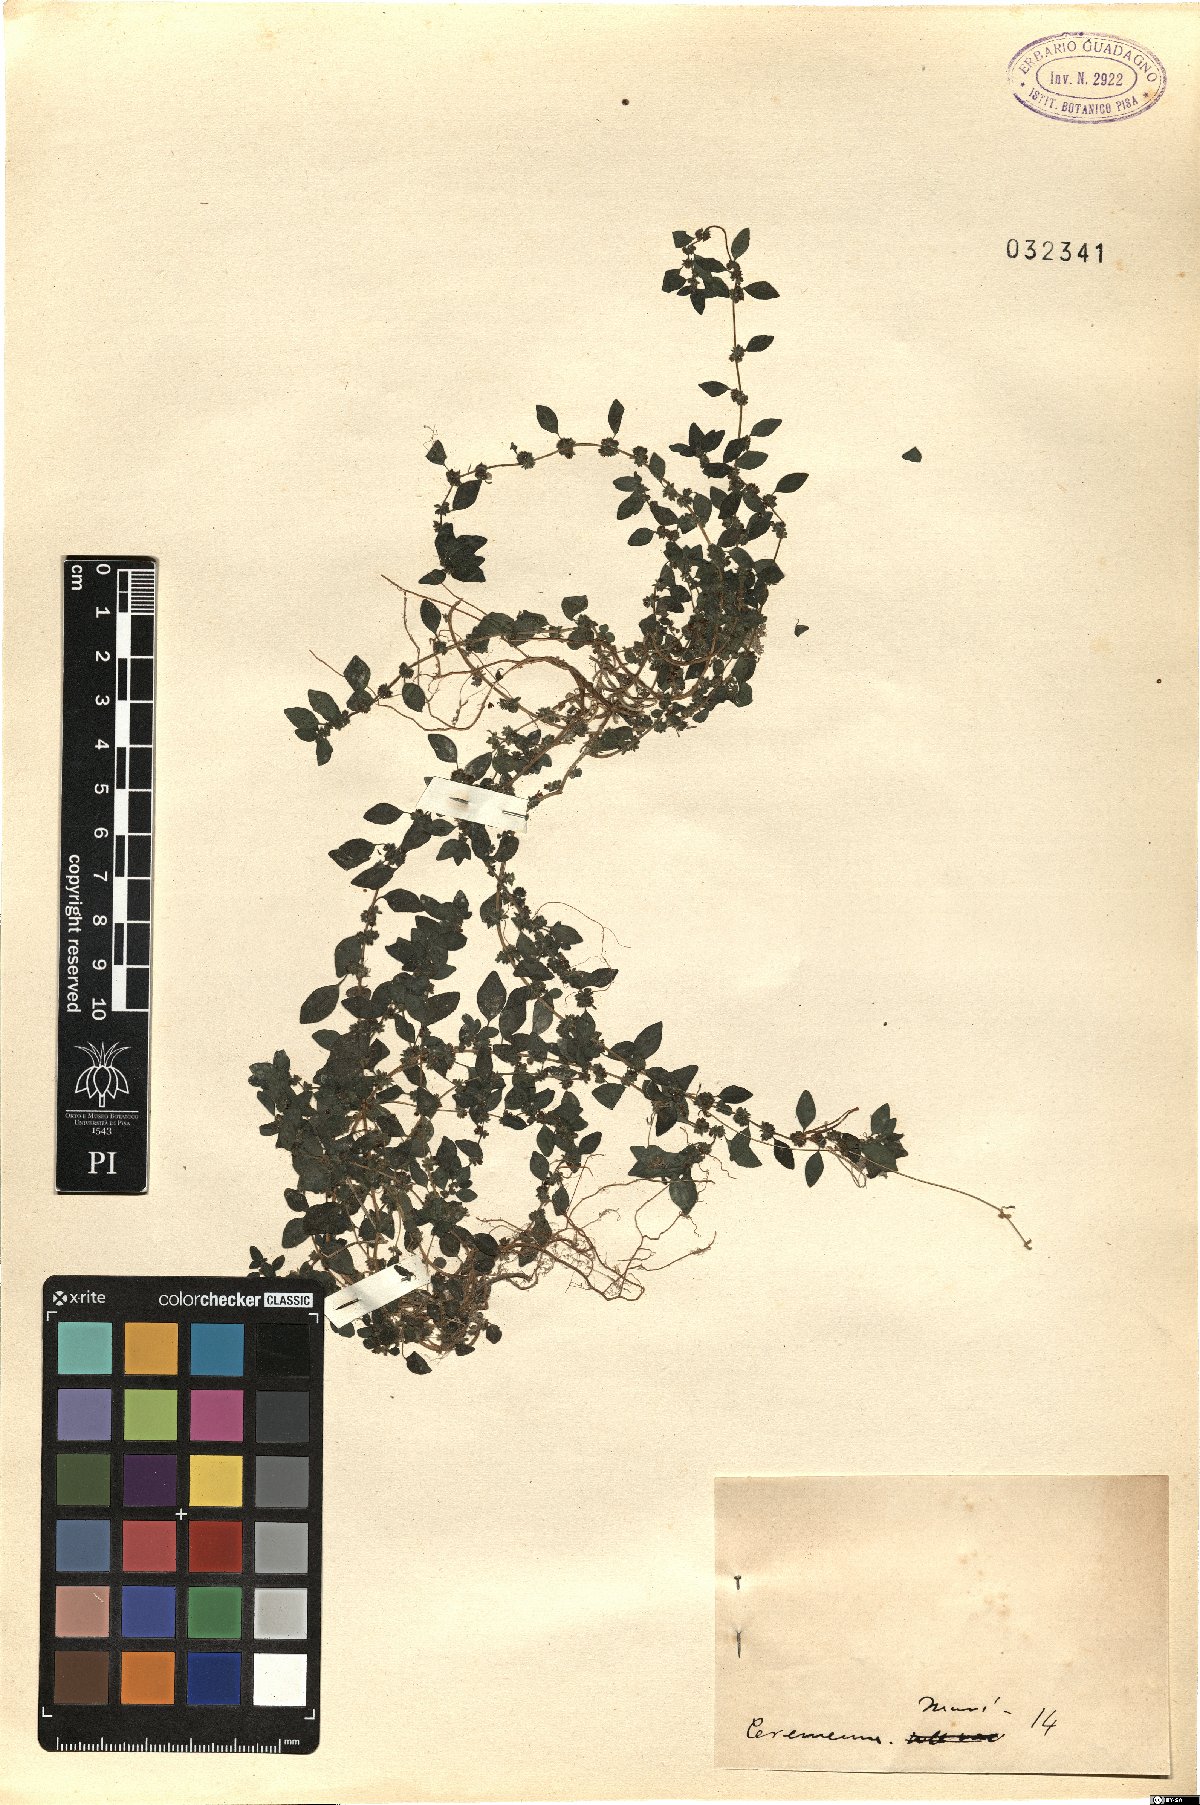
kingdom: Plantae
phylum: Tracheophyta
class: Magnoliopsida
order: Rosales
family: Urticaceae
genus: Parietaria
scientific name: Parietaria
